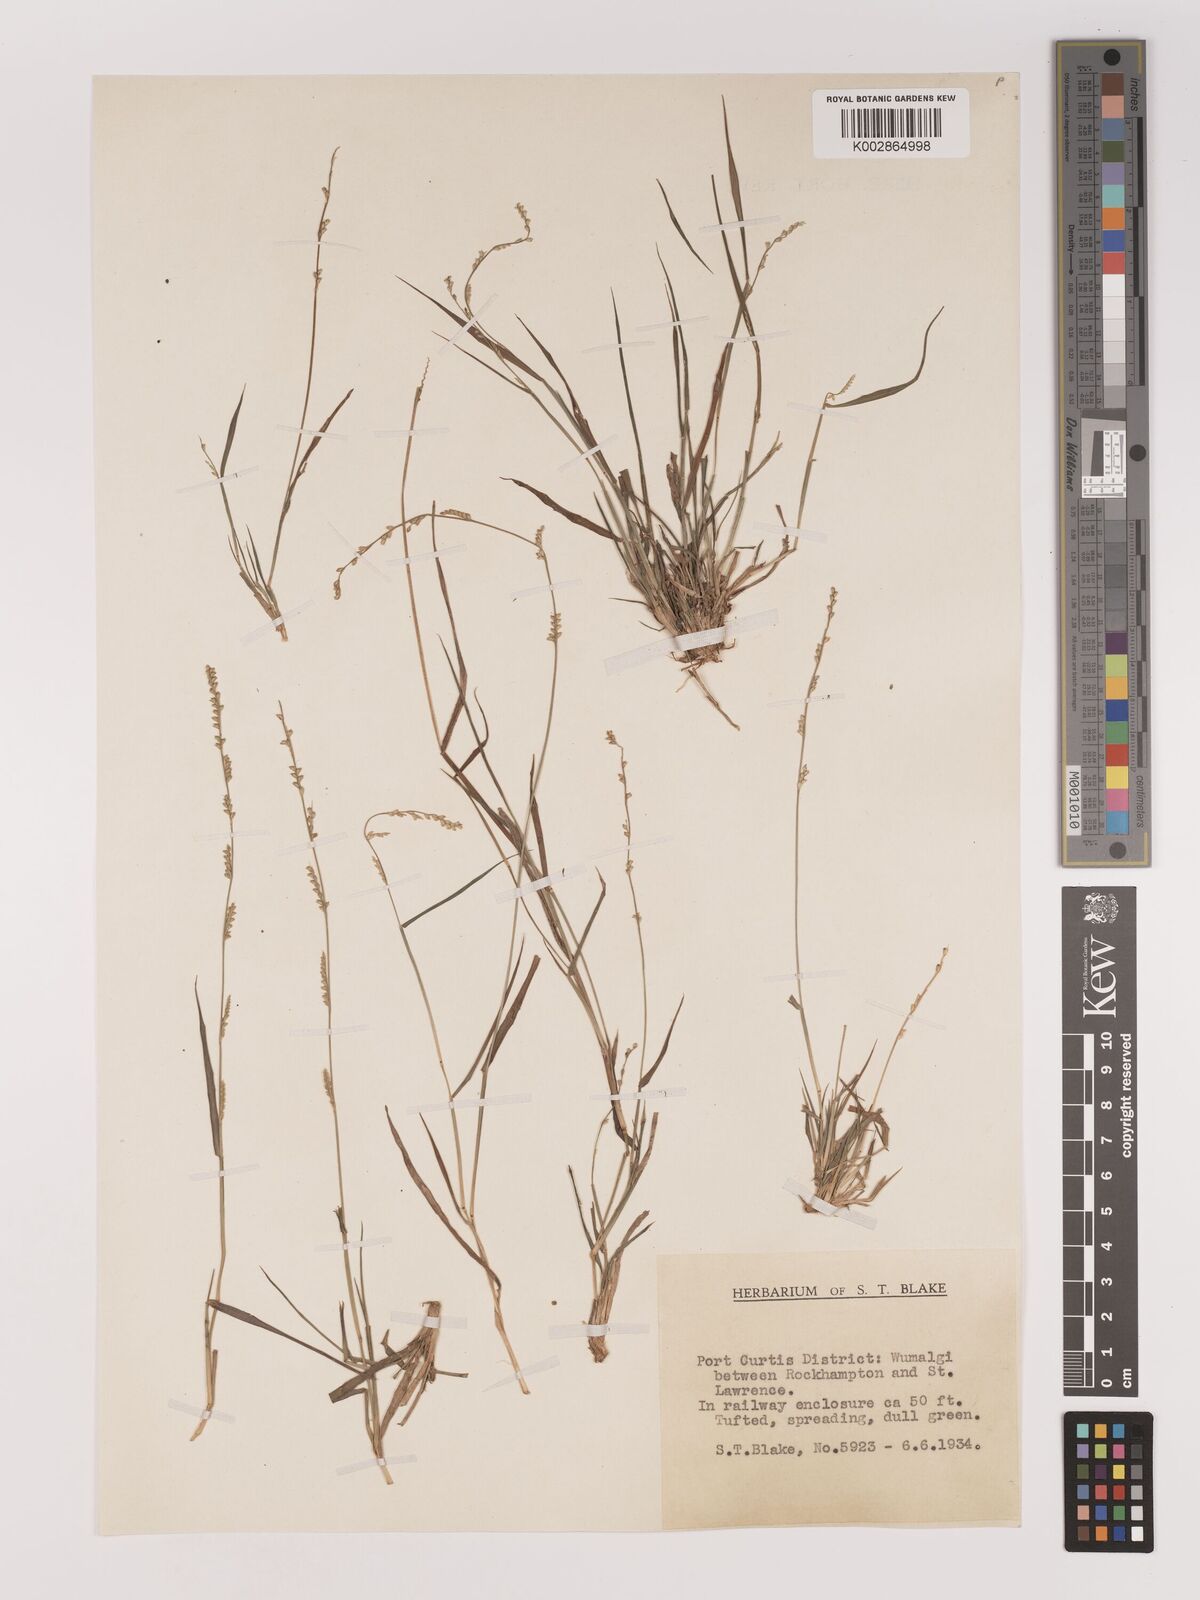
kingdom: Plantae
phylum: Tracheophyta
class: Liliopsida
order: Poales
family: Poaceae
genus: Setaria
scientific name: Setaria
